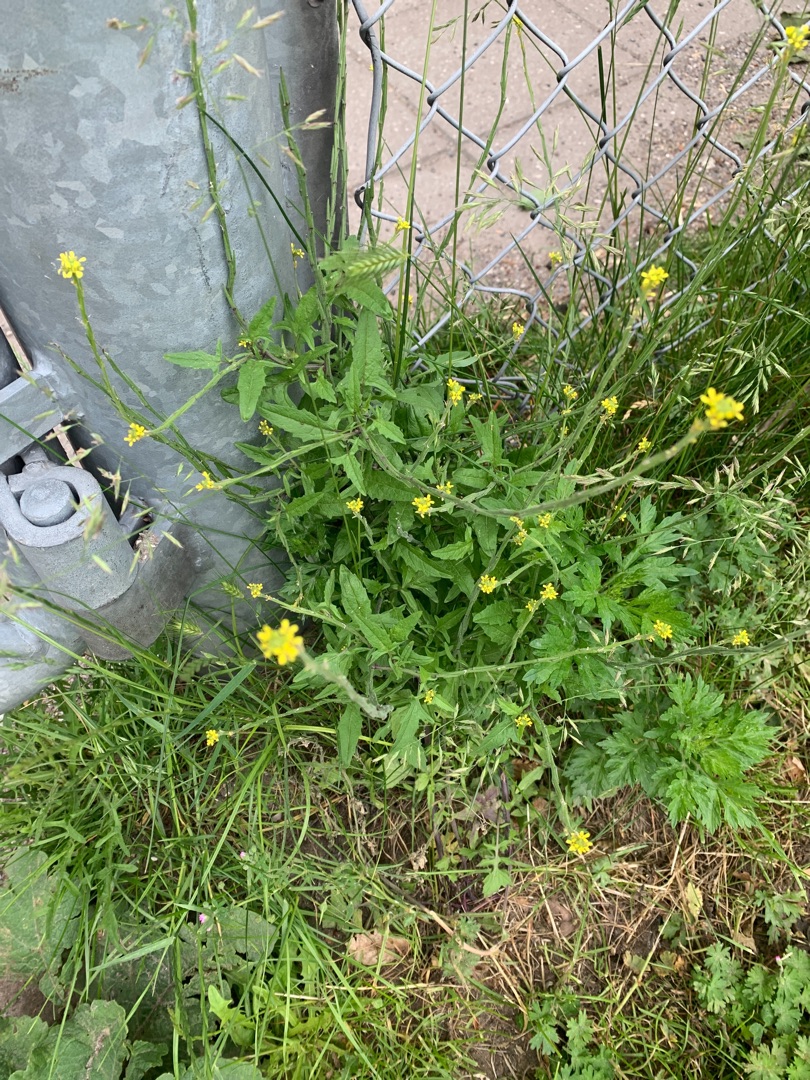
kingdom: Plantae
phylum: Tracheophyta
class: Magnoliopsida
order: Brassicales
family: Brassicaceae
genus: Sisymbrium
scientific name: Sisymbrium officinale
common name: Rank vejsennep
